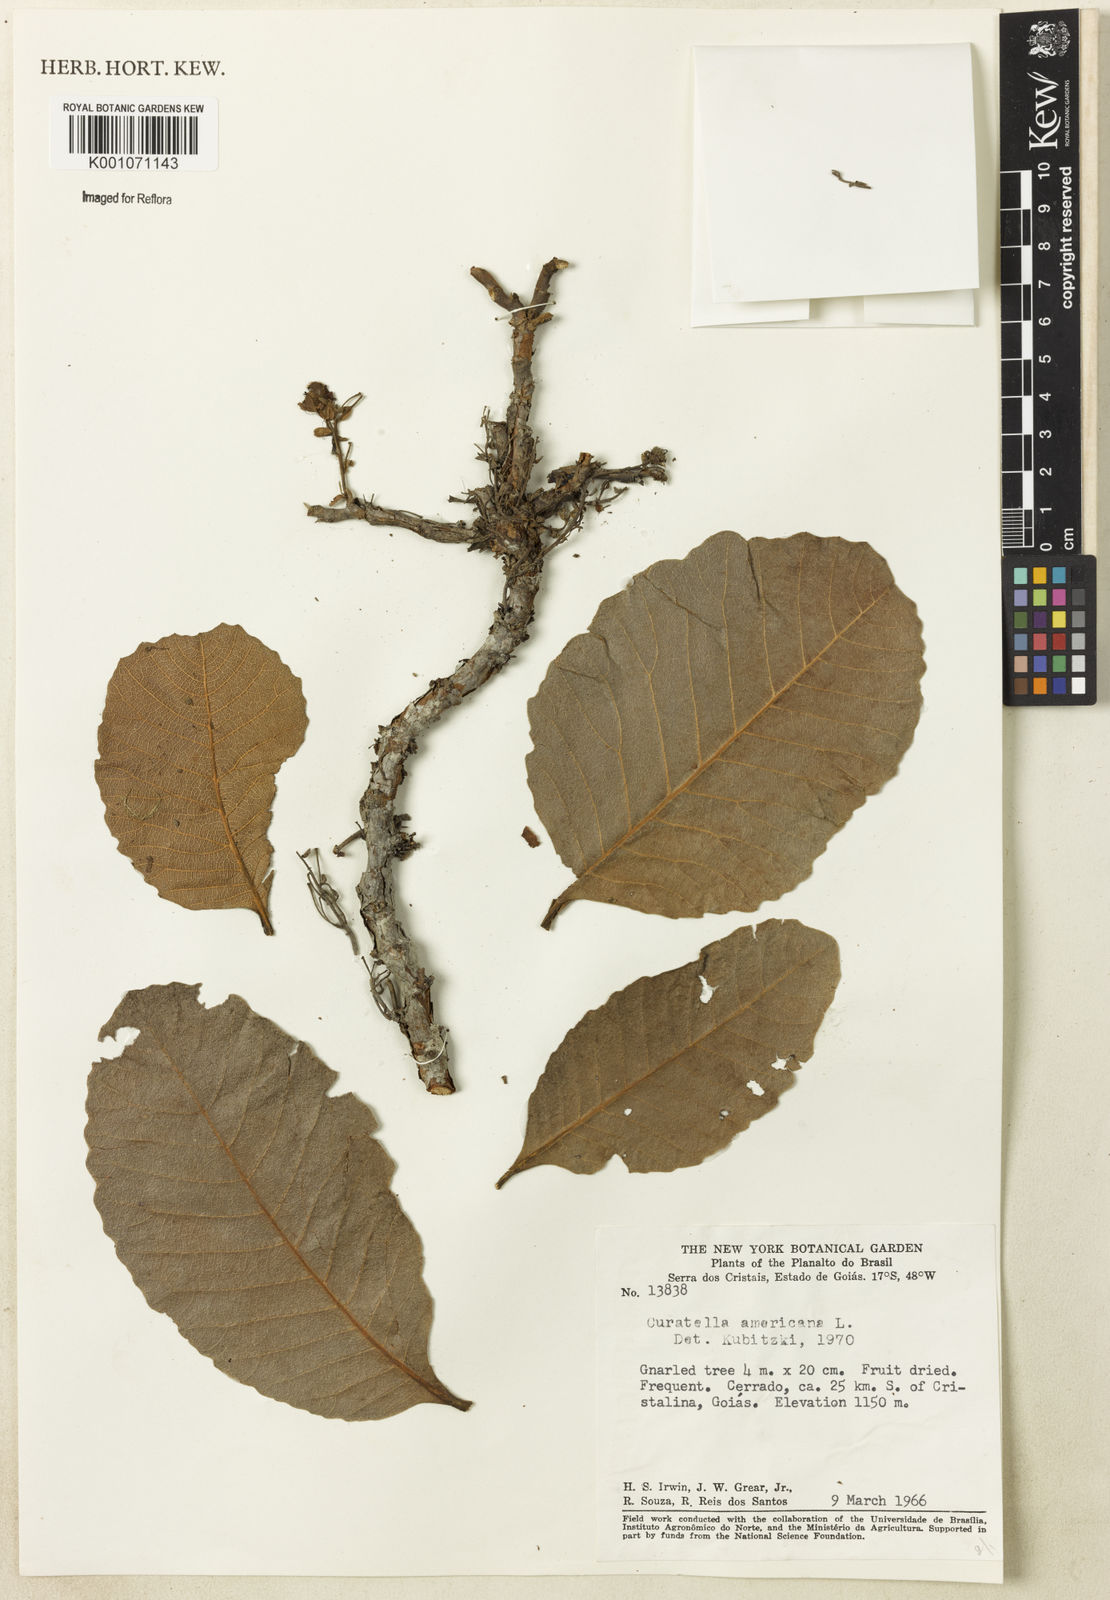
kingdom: Plantae
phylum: Tracheophyta
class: Magnoliopsida
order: Dilleniales
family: Dilleniaceae
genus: Curatella
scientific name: Curatella americana
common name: Sandpaper tree
